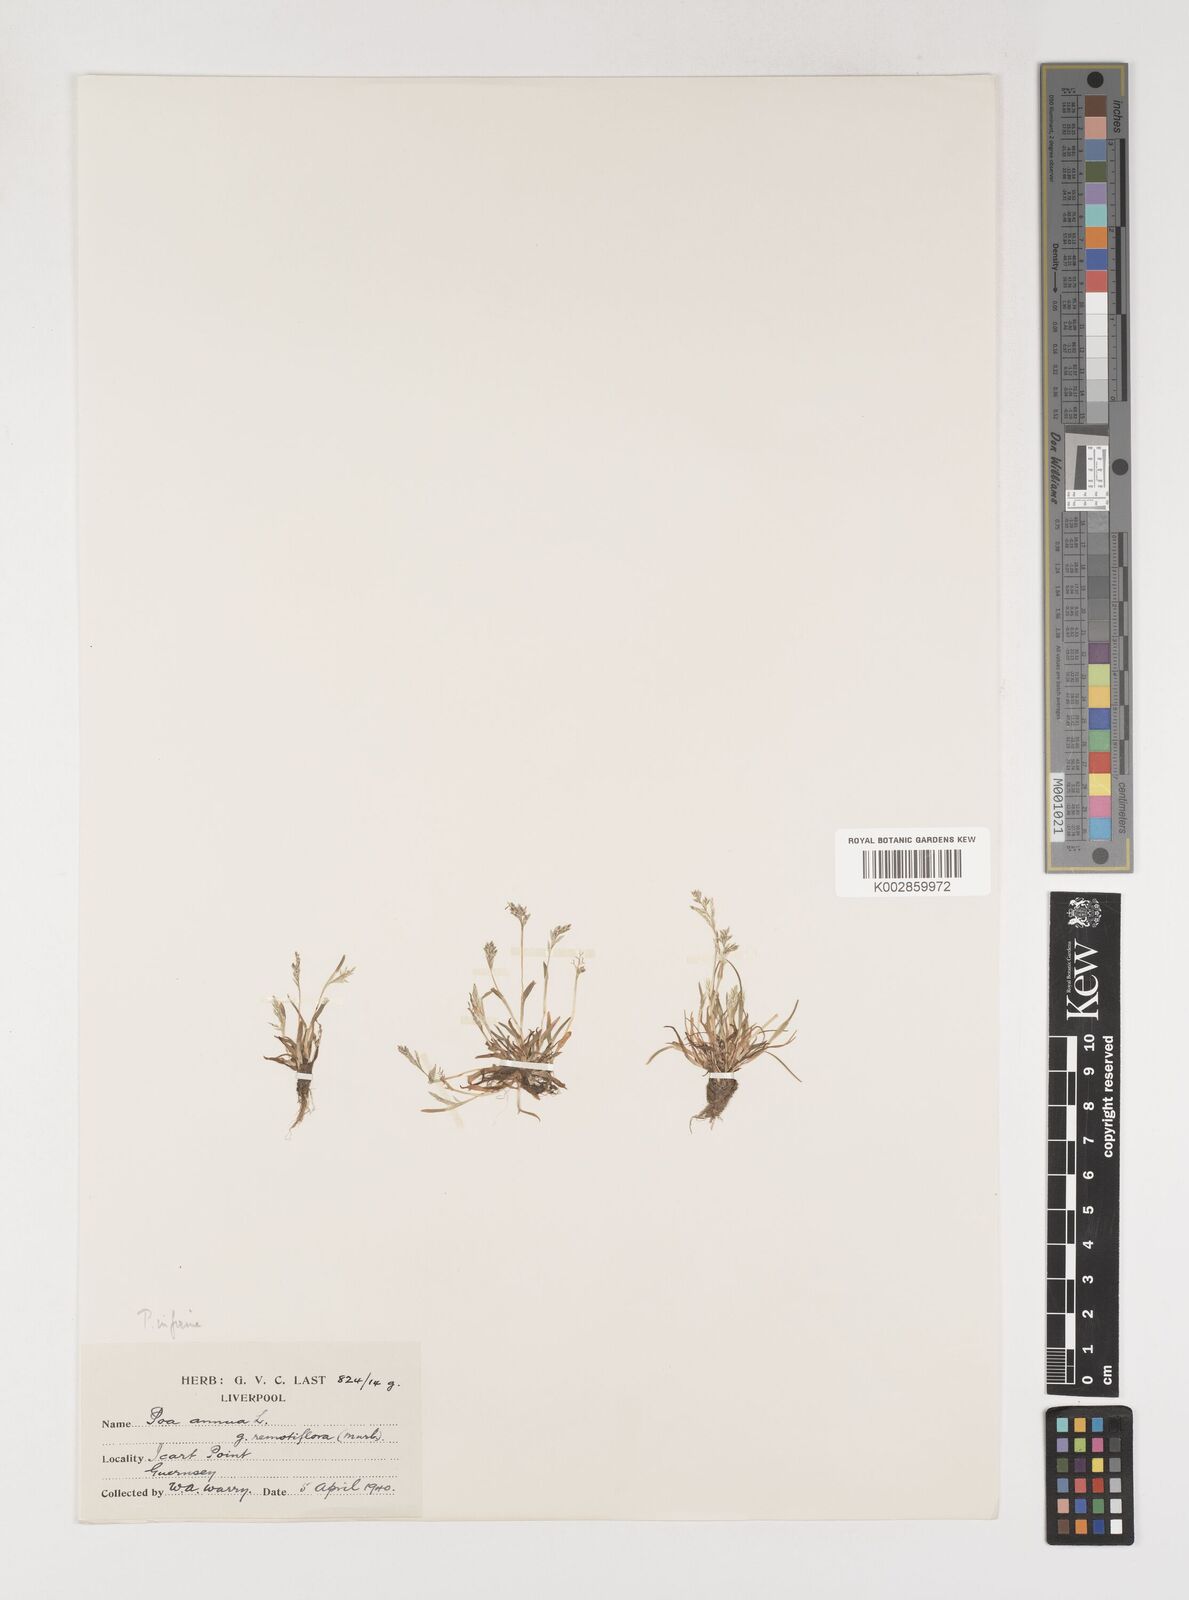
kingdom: Plantae
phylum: Tracheophyta
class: Liliopsida
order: Poales
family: Poaceae
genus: Poa
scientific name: Poa infirma
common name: Weak bluegrass
